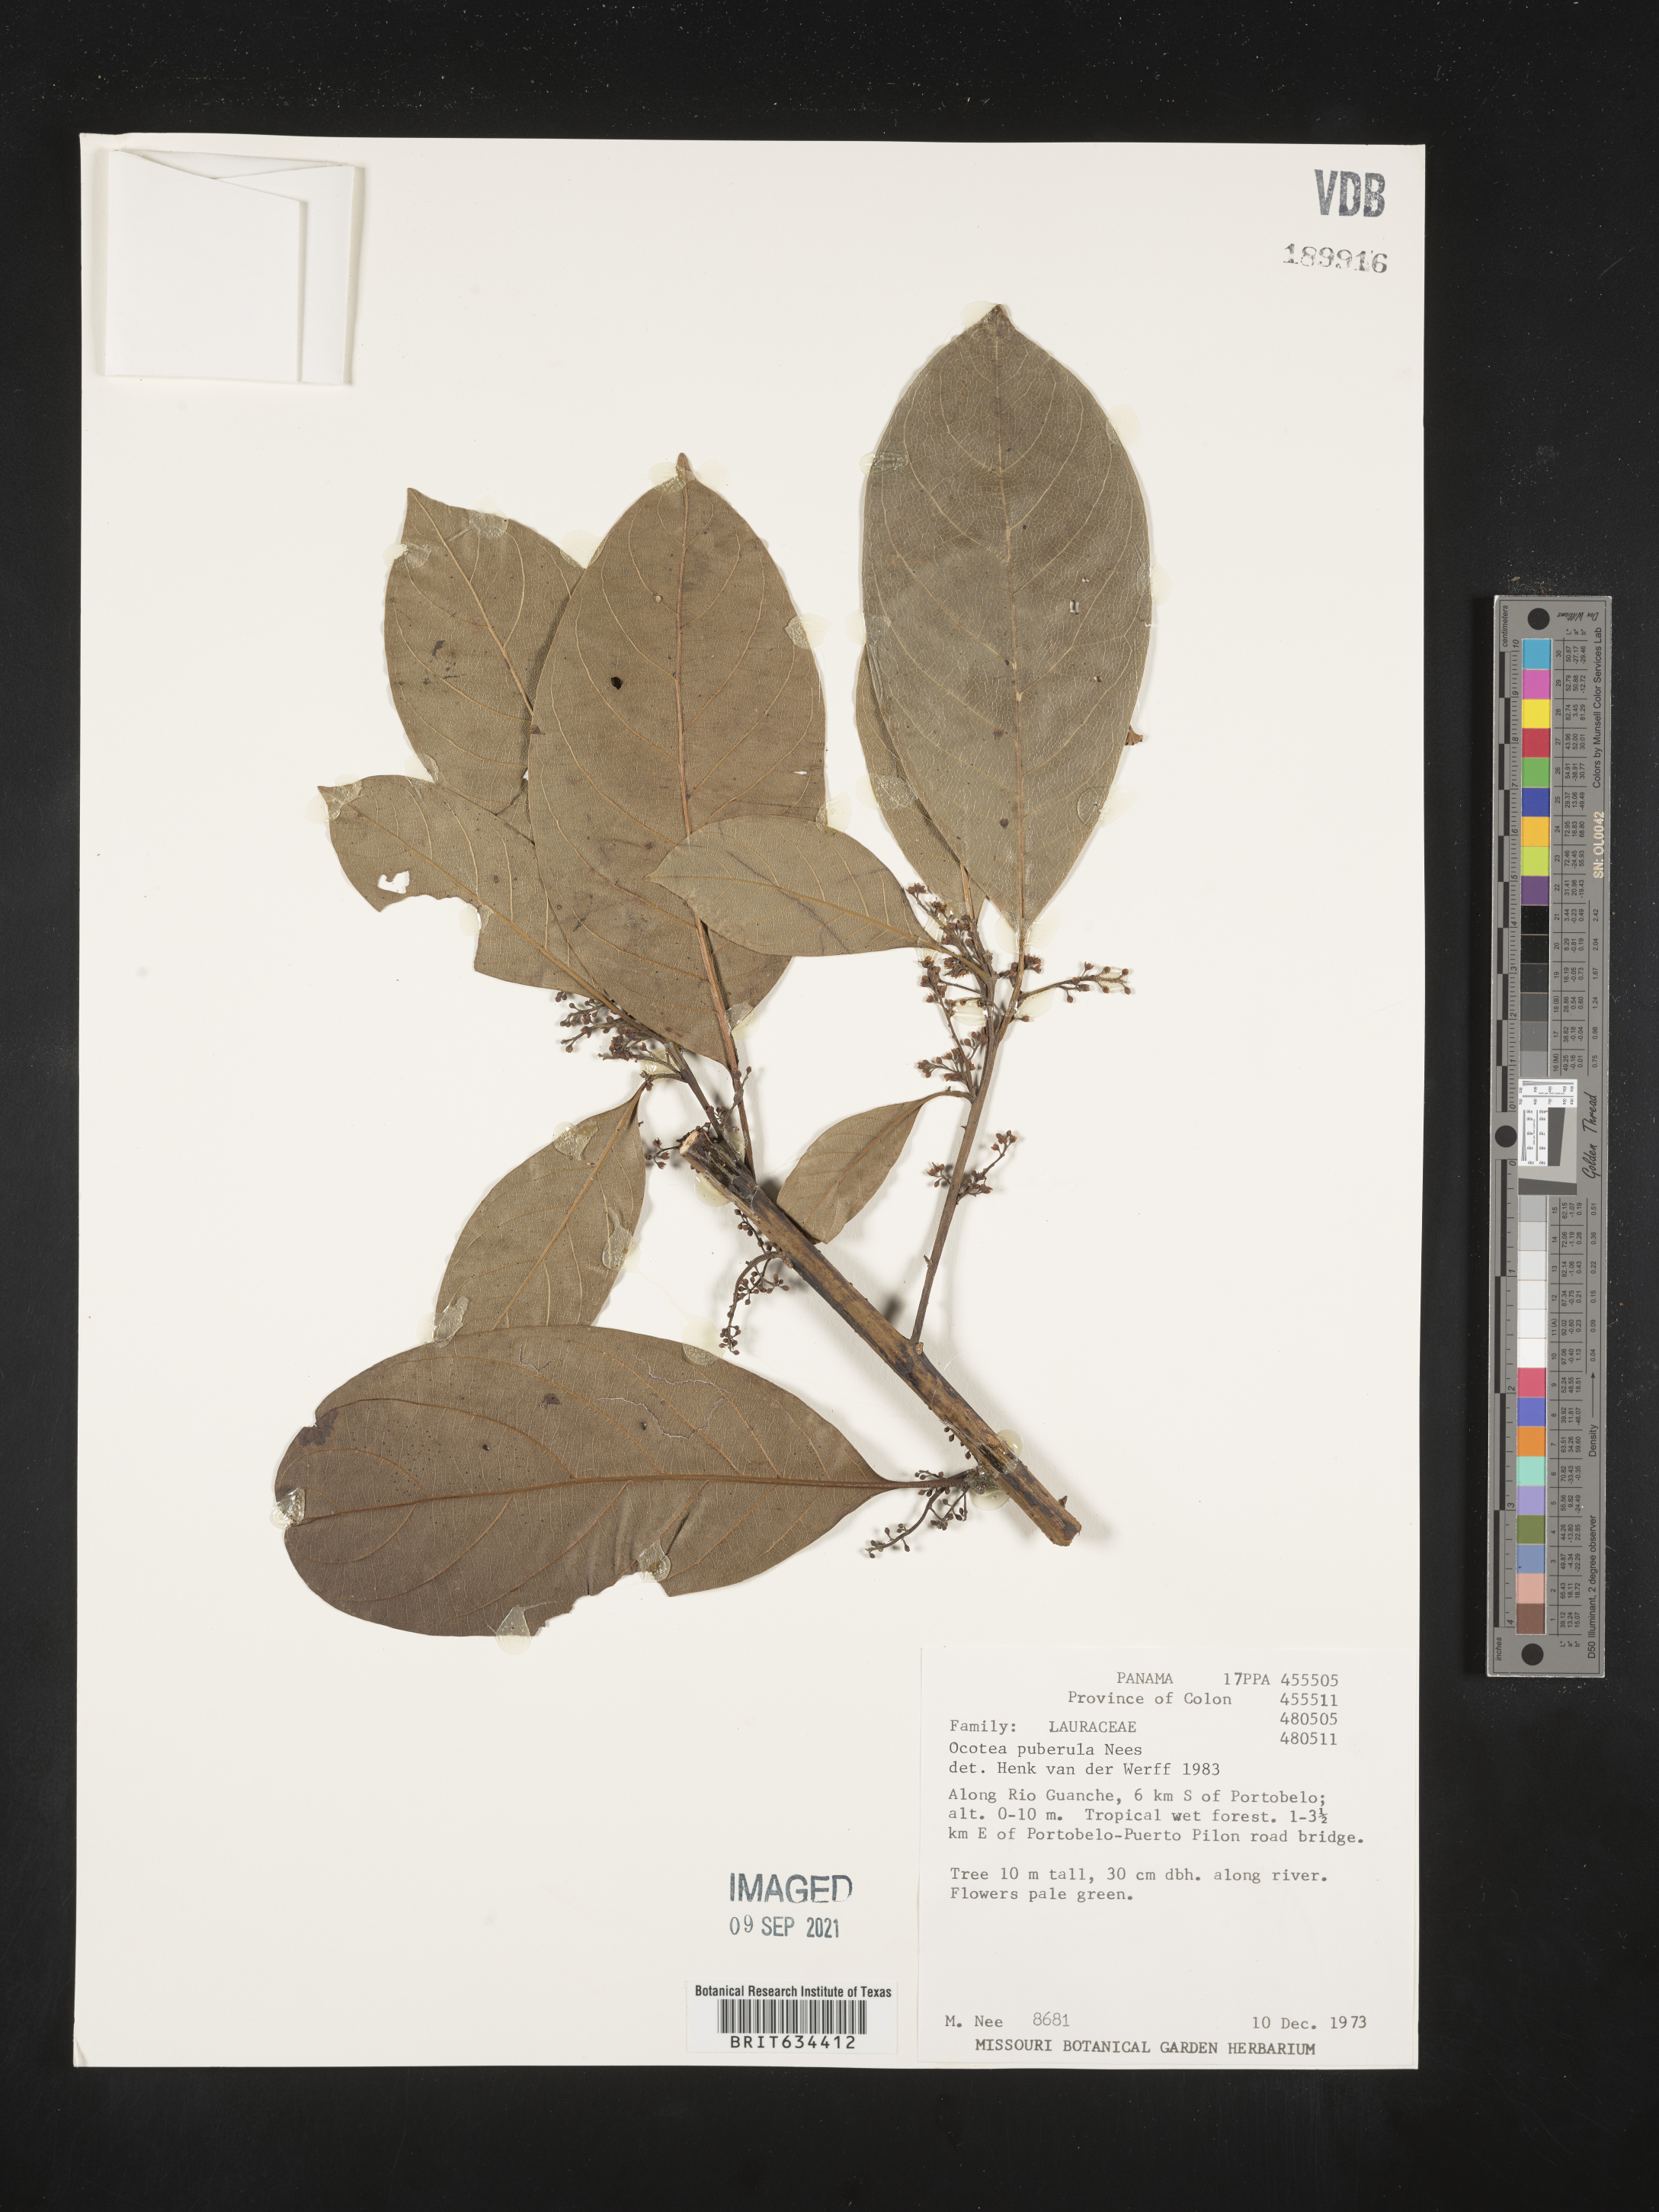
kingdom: Plantae
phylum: Tracheophyta
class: Magnoliopsida
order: Laurales
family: Lauraceae
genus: Ocotea
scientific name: Ocotea
